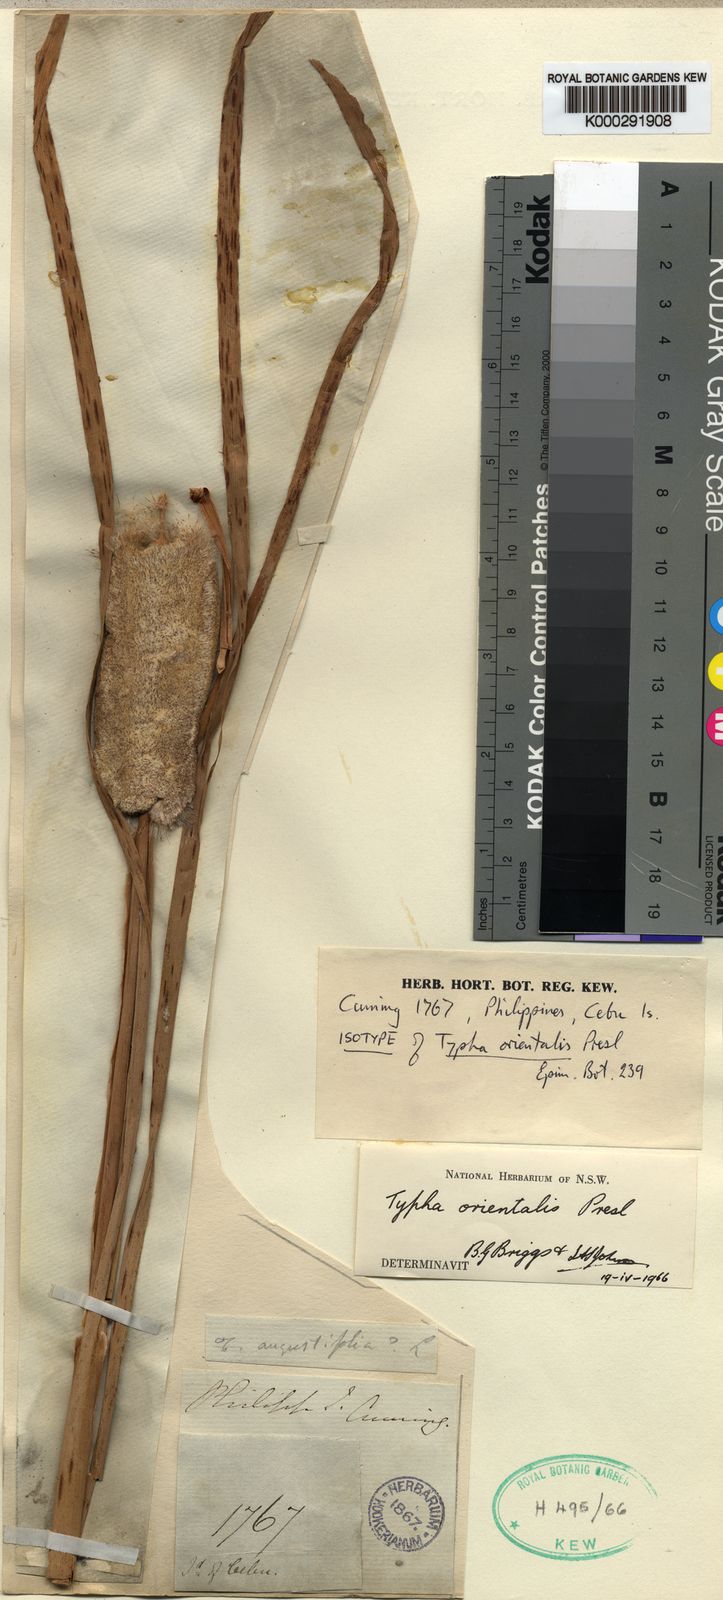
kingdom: Plantae
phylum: Tracheophyta
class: Liliopsida
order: Poales
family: Typhaceae
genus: Typha
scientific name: Typha orientalis
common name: Bullrush
